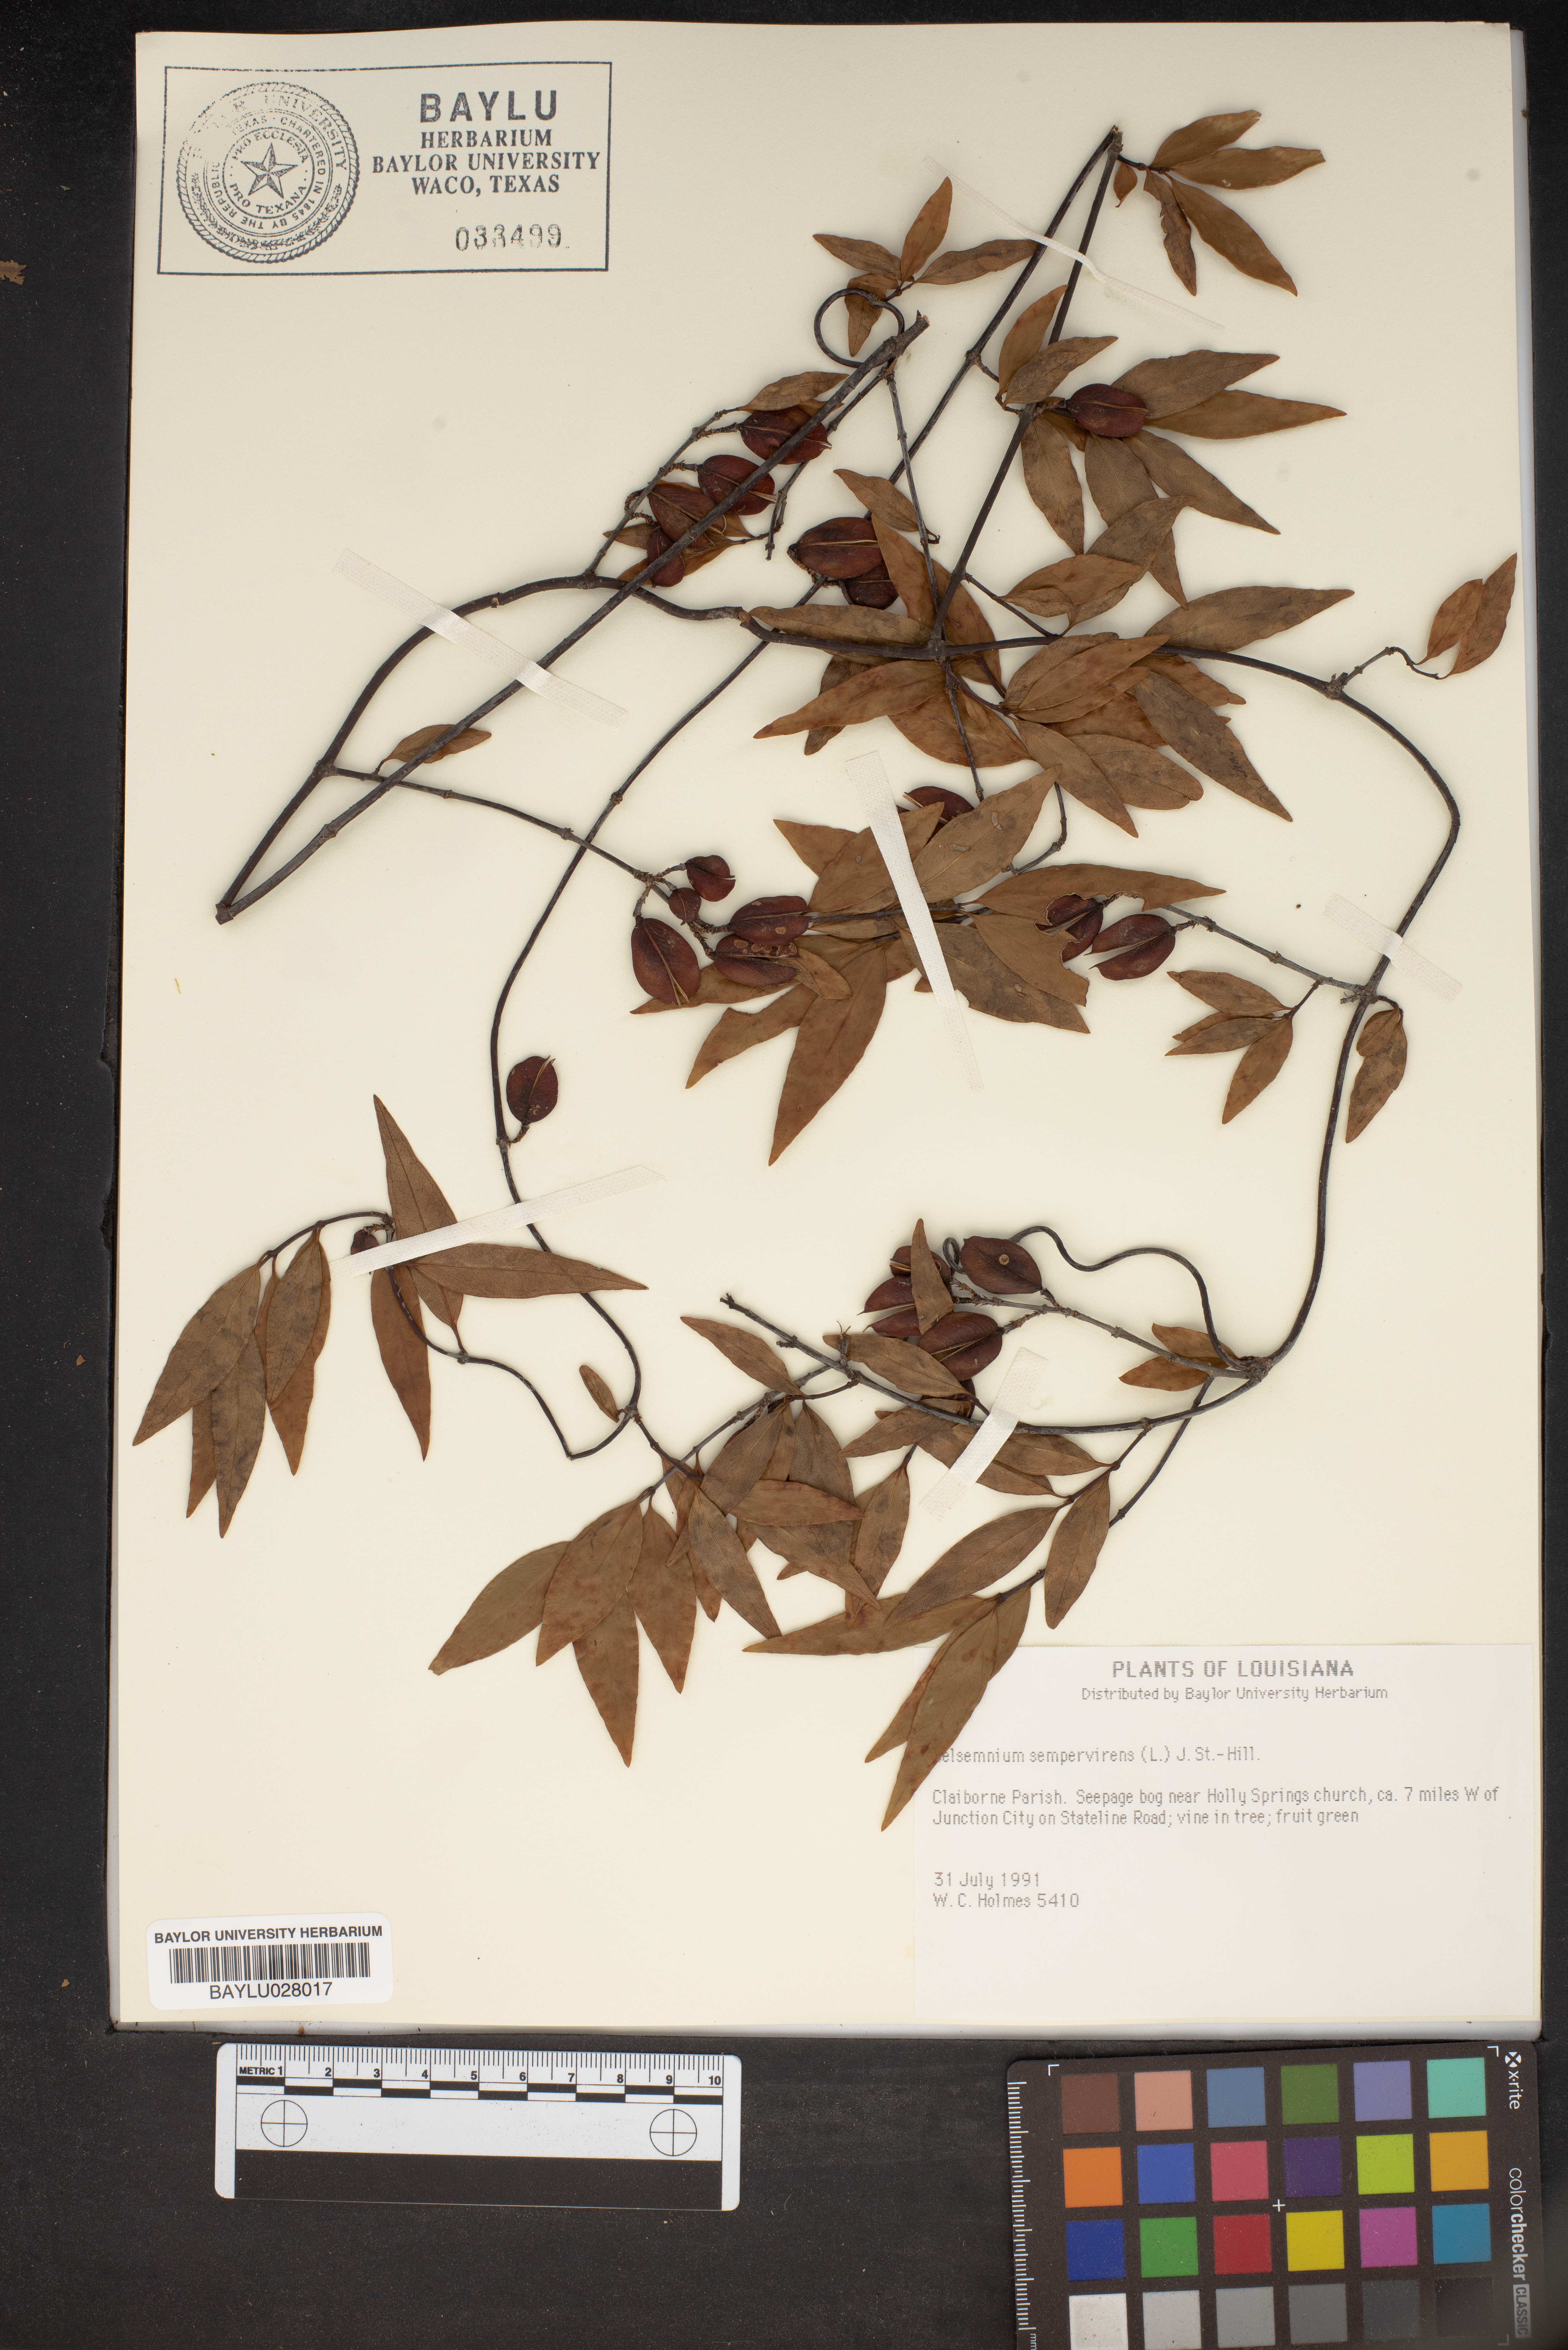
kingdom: Plantae
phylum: Tracheophyta
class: Magnoliopsida
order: Gentianales
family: Gelsemiaceae
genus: Gelsemium
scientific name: Gelsemium sempervirens
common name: Carolina-jasmine
